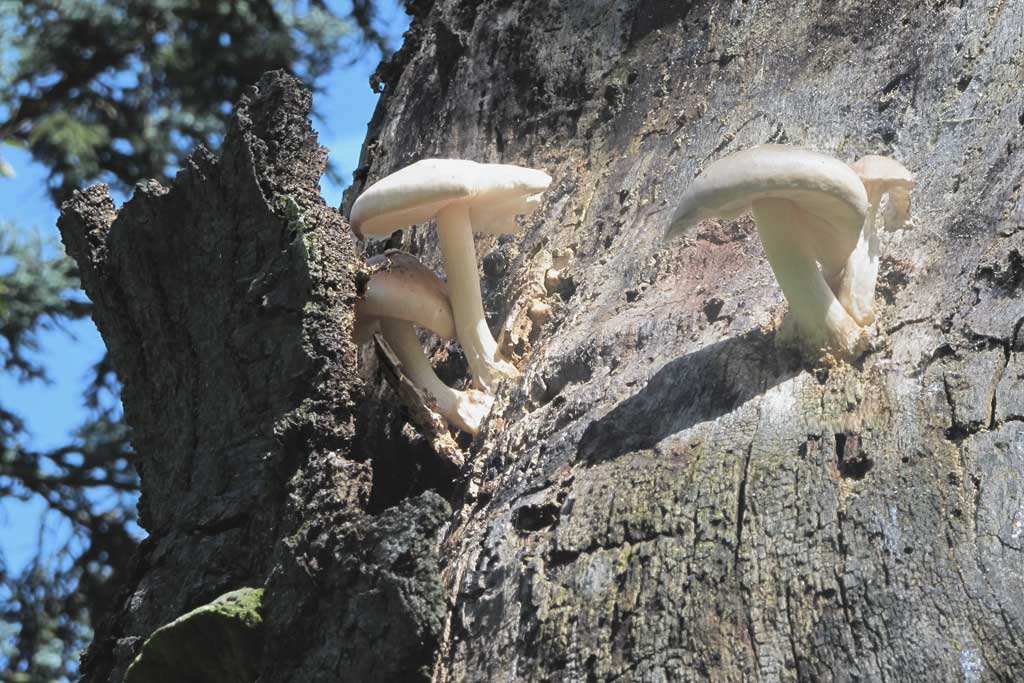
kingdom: Fungi
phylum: Basidiomycota
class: Agaricomycetes
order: Agaricales
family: Pluteaceae
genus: Pluteus
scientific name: Pluteus
